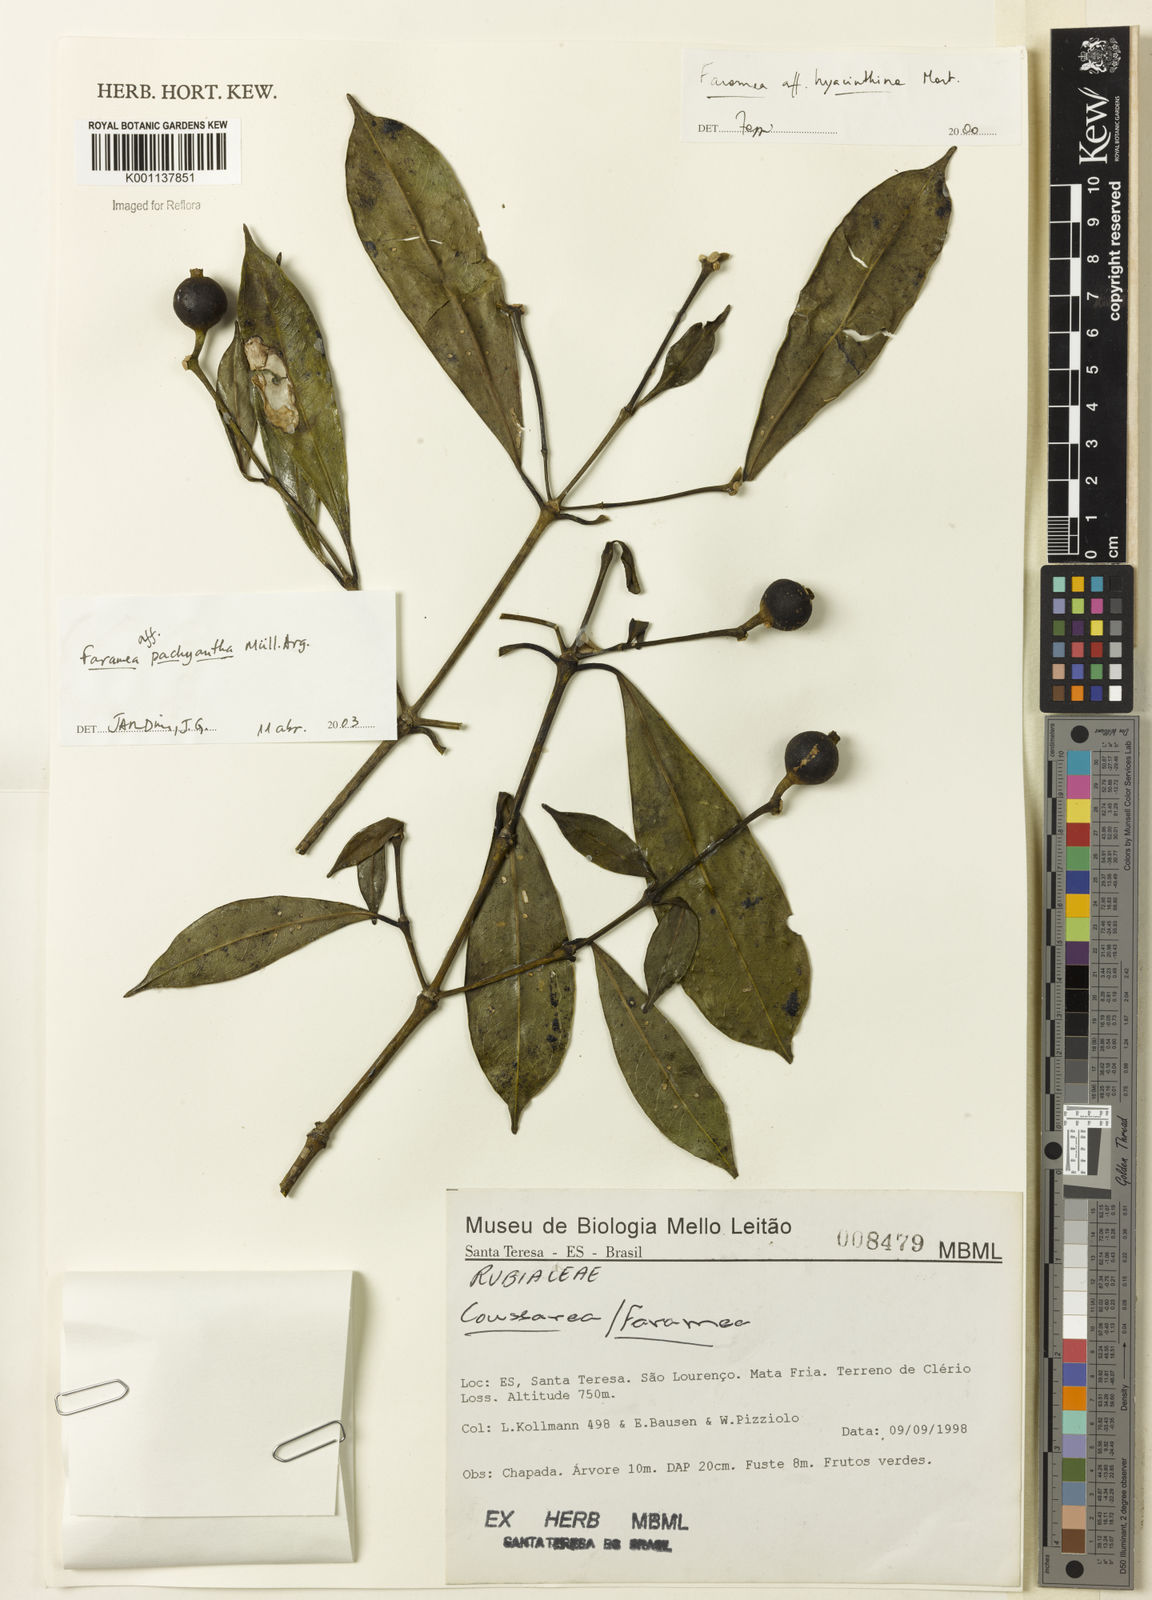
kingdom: Plantae
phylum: Tracheophyta
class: Magnoliopsida
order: Gentianales
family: Rubiaceae
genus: Faramea
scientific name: Faramea
